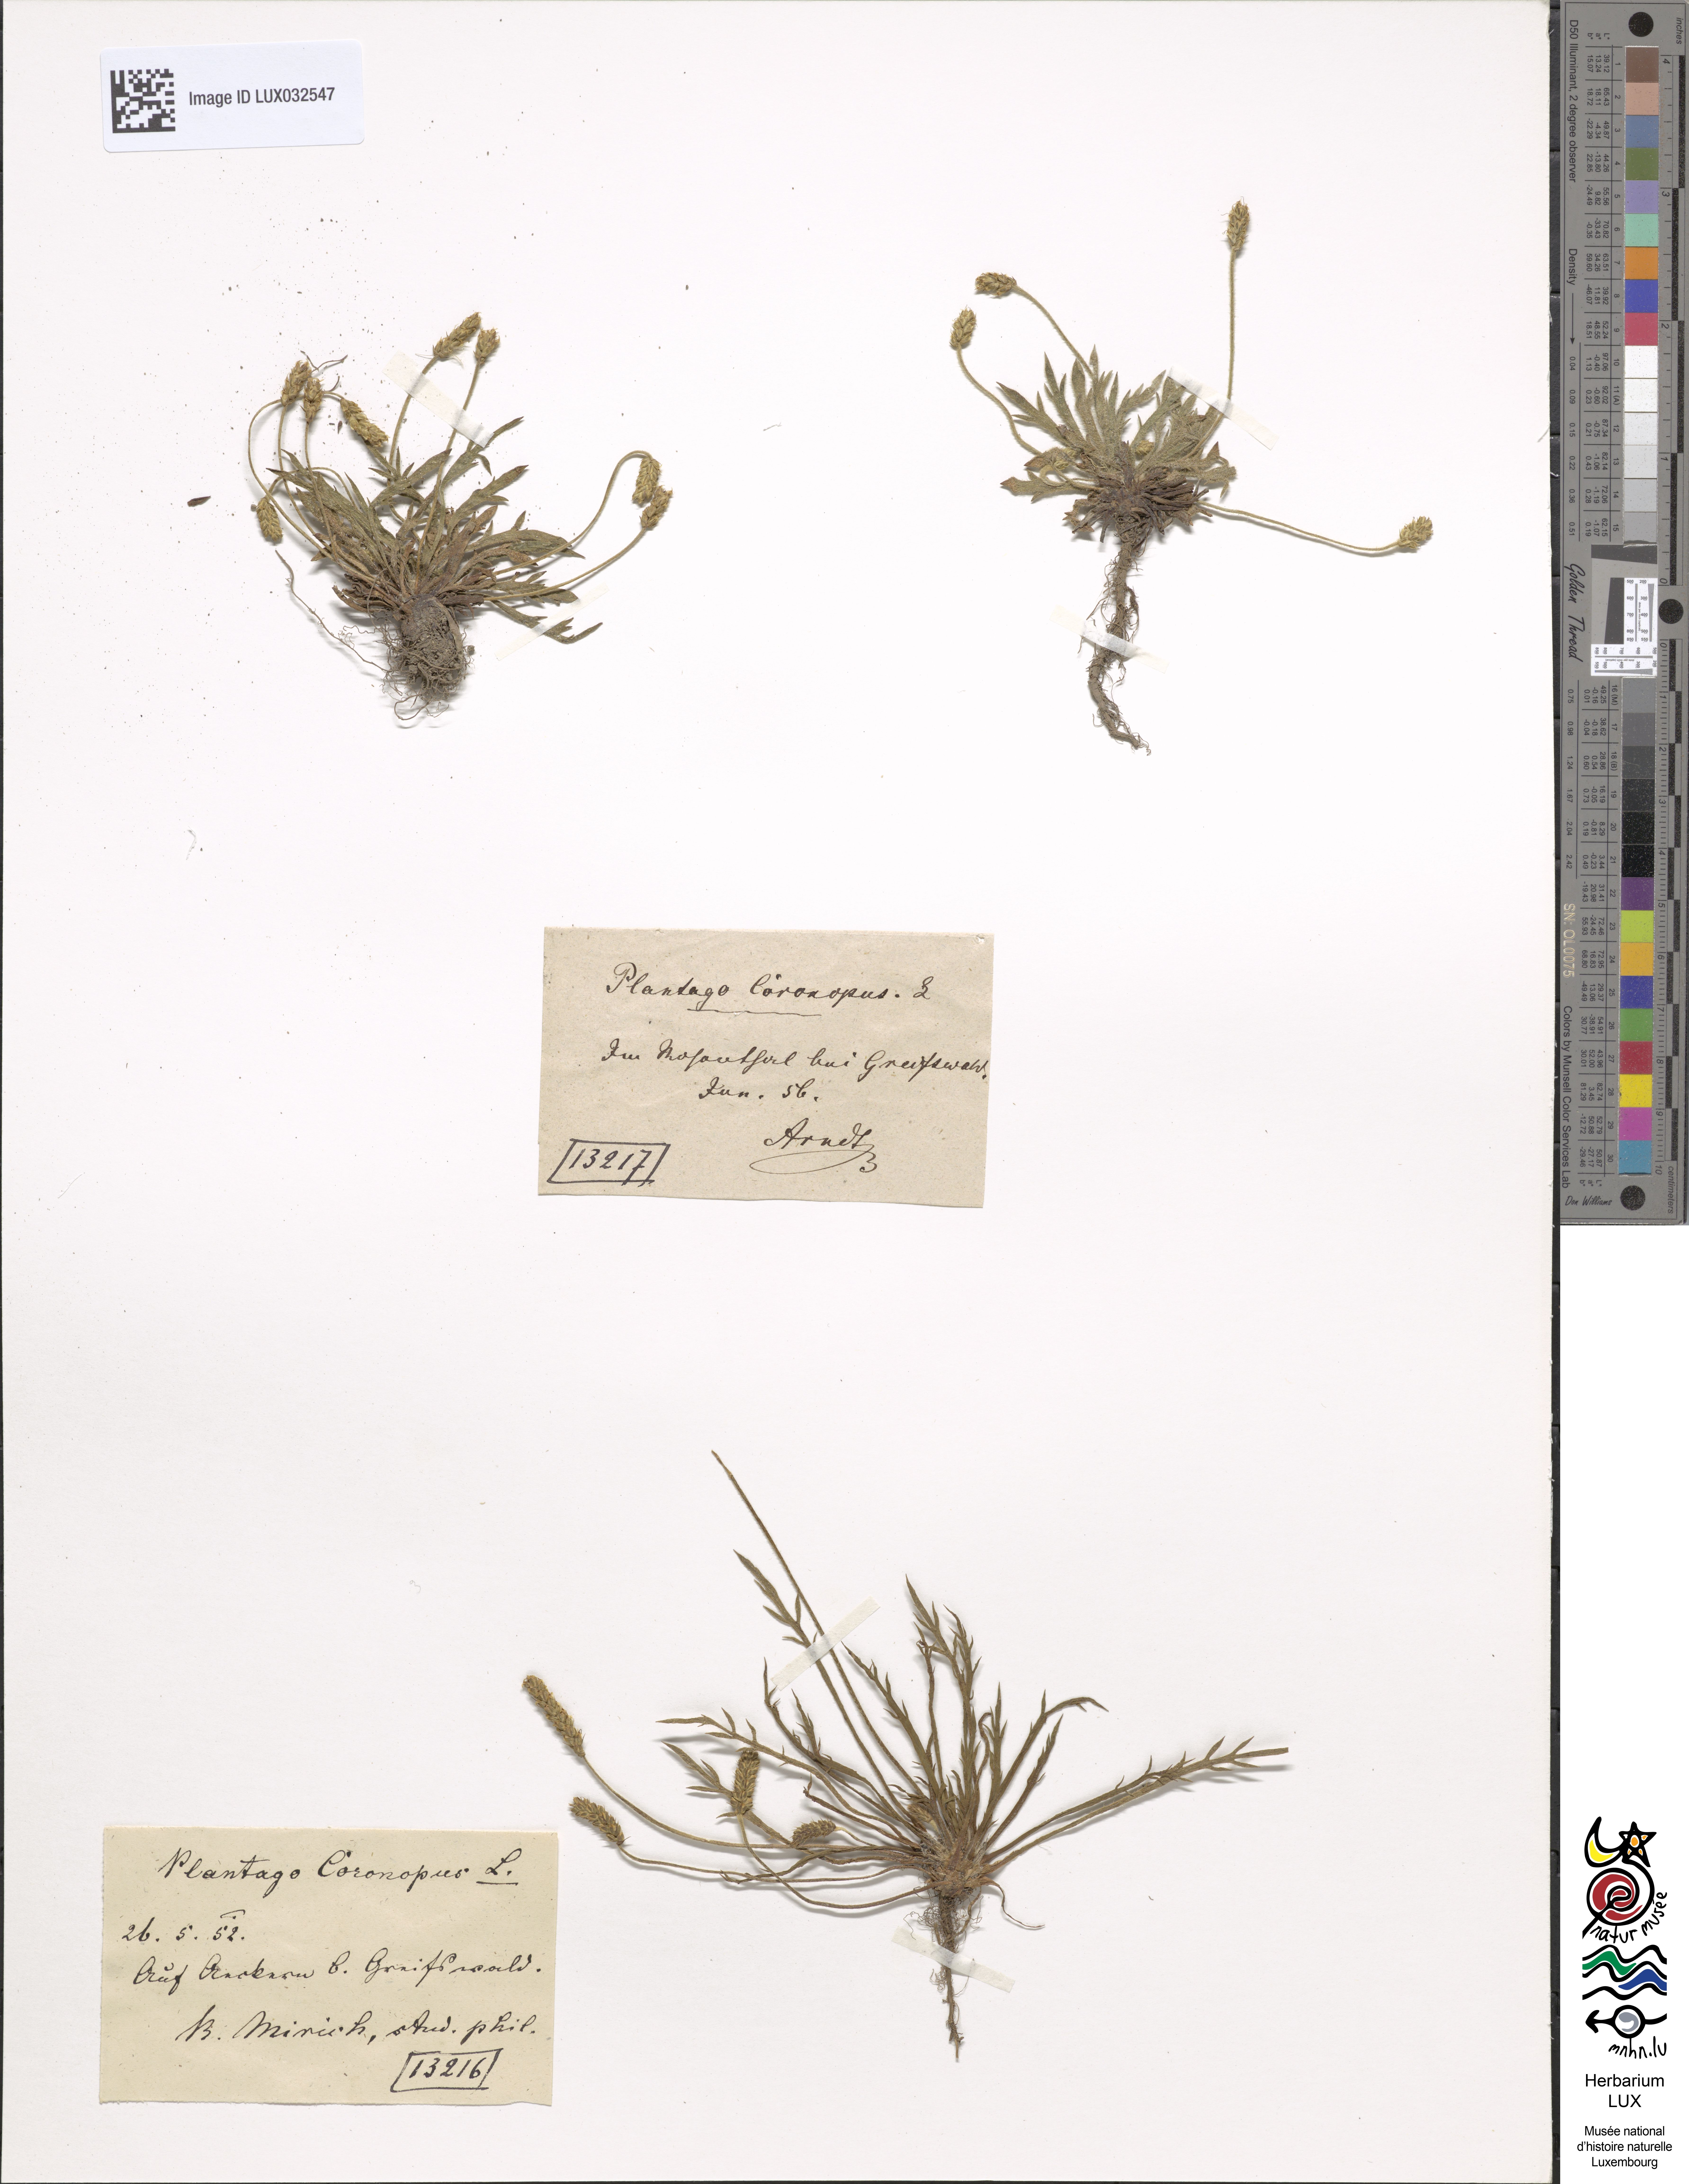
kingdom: Plantae
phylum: Tracheophyta
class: Magnoliopsida
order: Lamiales
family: Plantaginaceae
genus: Plantago
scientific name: Plantago coronopus
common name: Buck's-horn plantain
